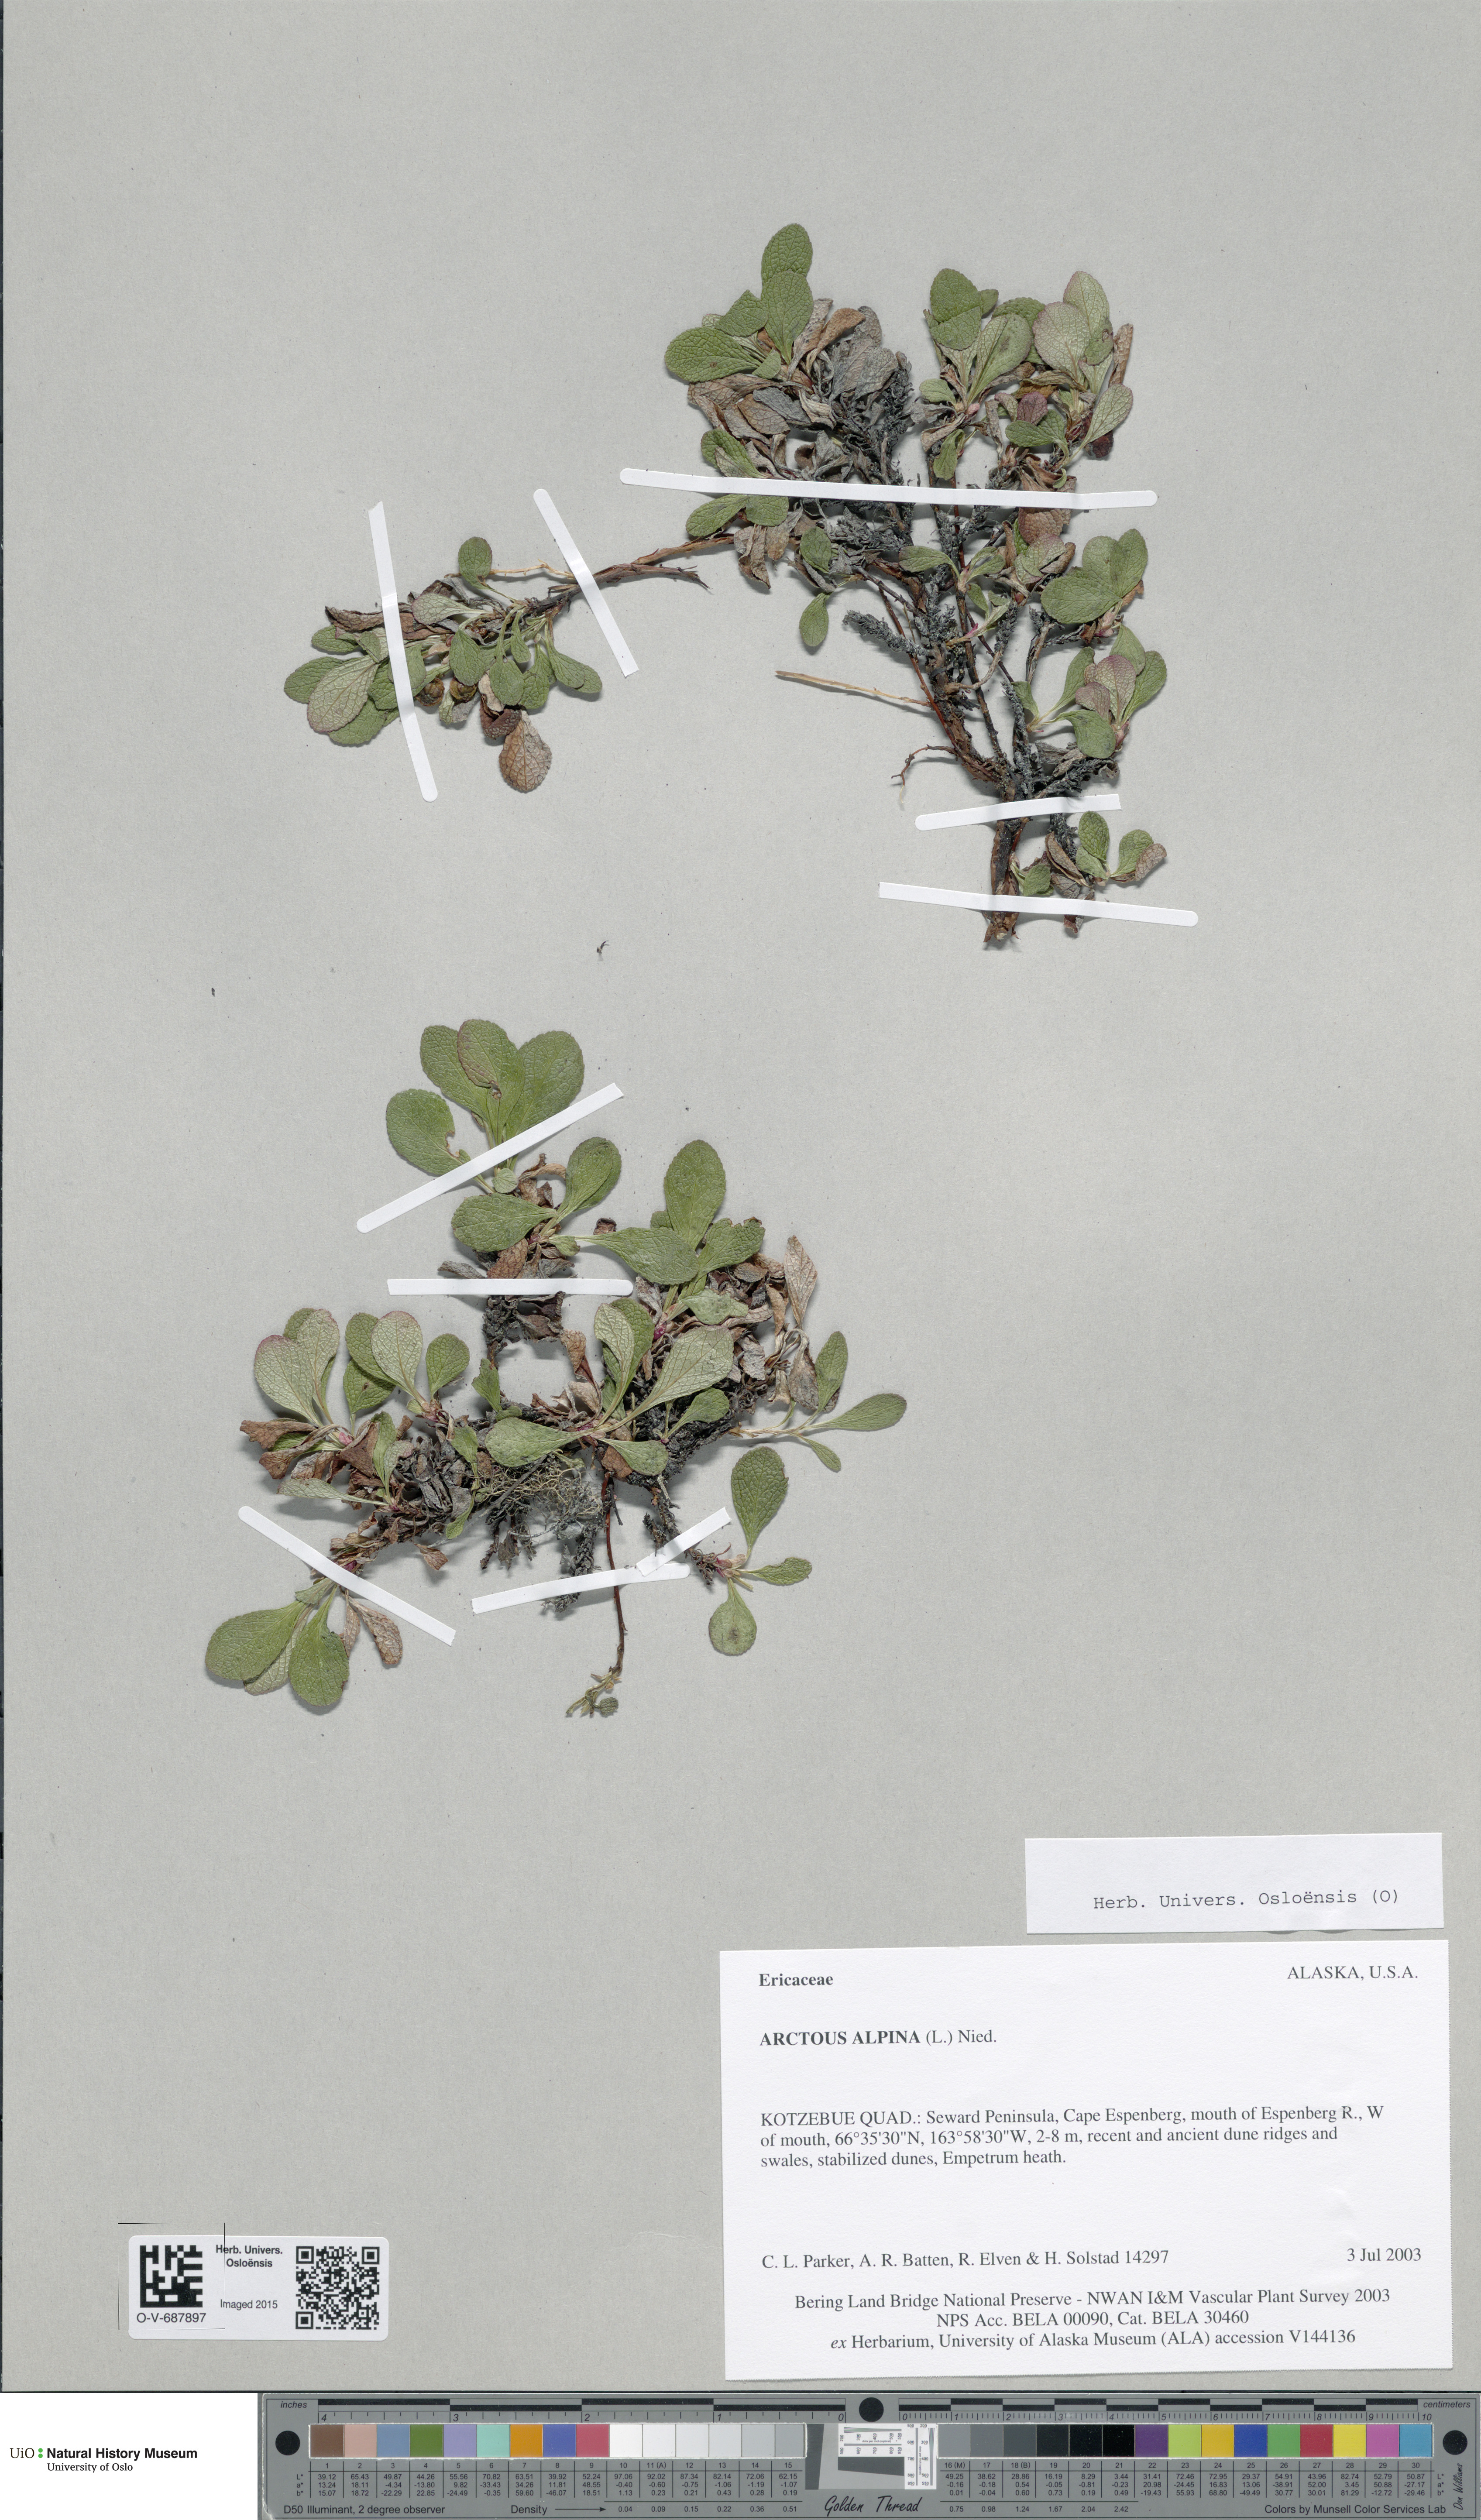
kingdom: Plantae
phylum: Tracheophyta
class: Magnoliopsida
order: Ericales
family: Ericaceae
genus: Arctostaphylos
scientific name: Arctostaphylos alpinus
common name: Alpine bearberry
